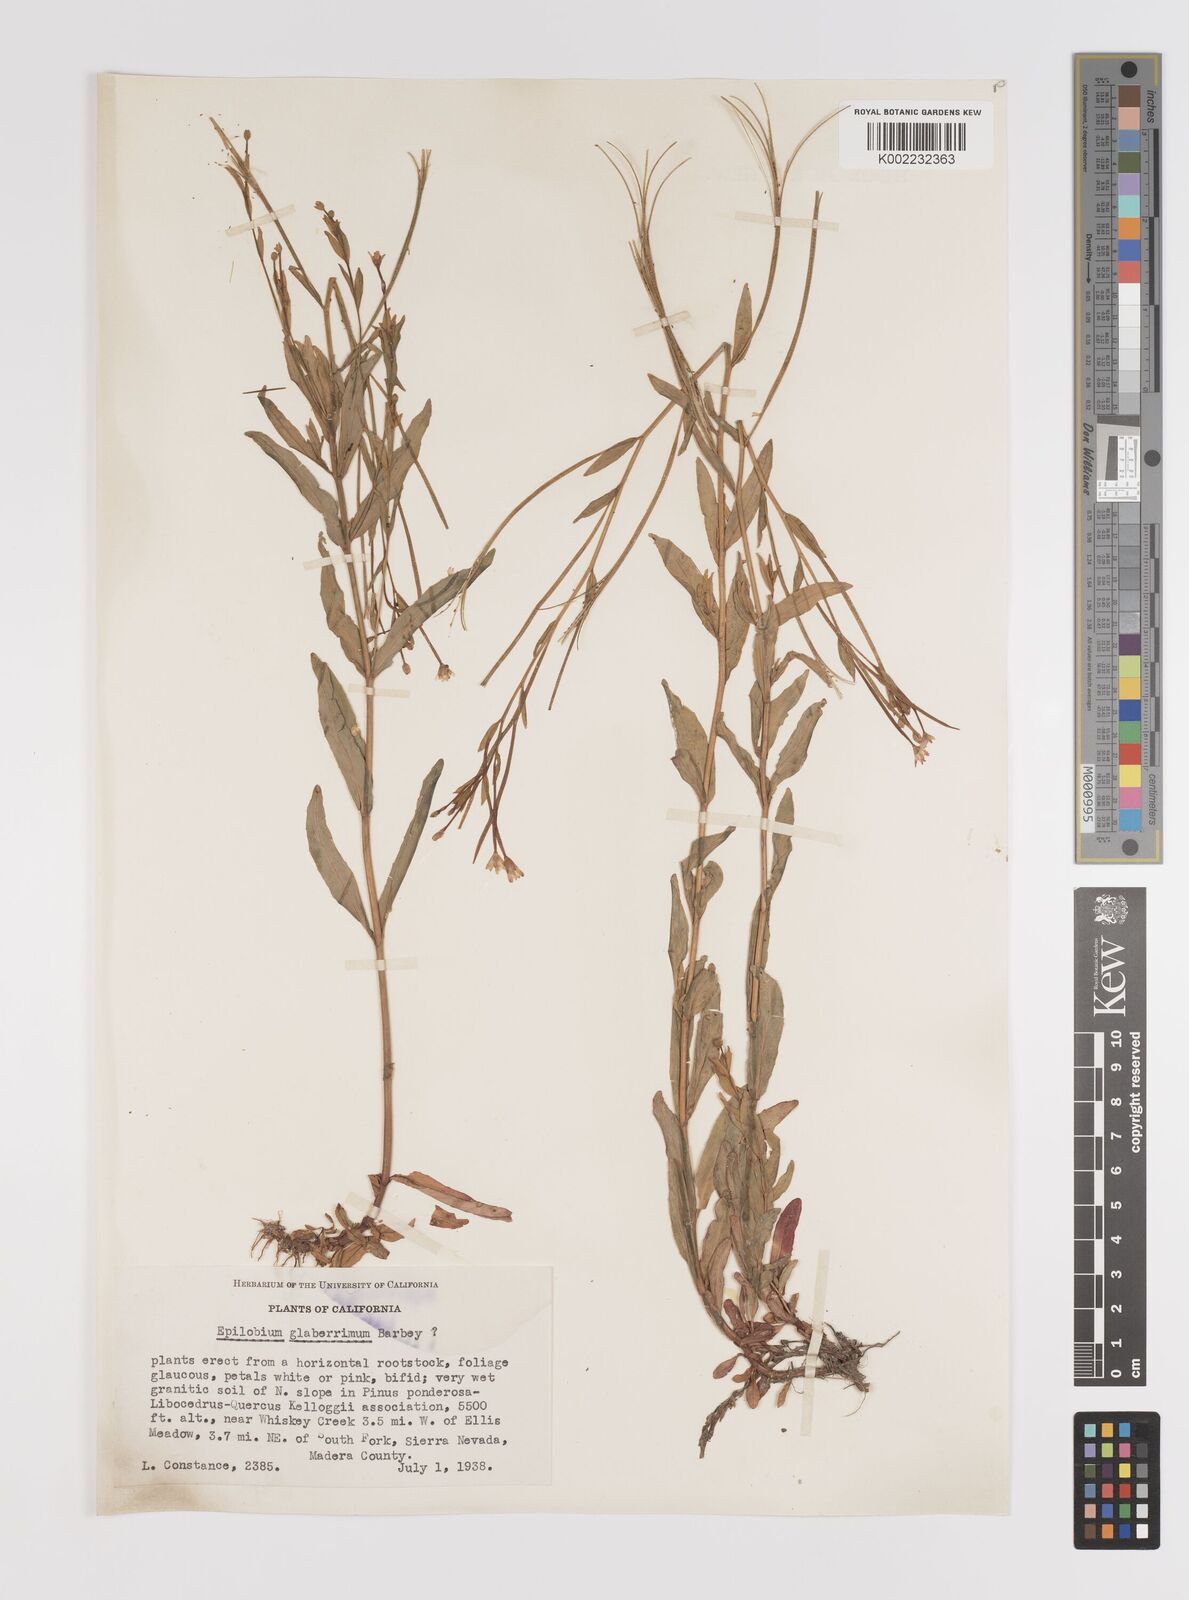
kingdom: Plantae
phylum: Tracheophyta
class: Magnoliopsida
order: Myrtales
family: Onagraceae
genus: Epilobium
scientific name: Epilobium glaberrimum
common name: Glaucous willowherb
